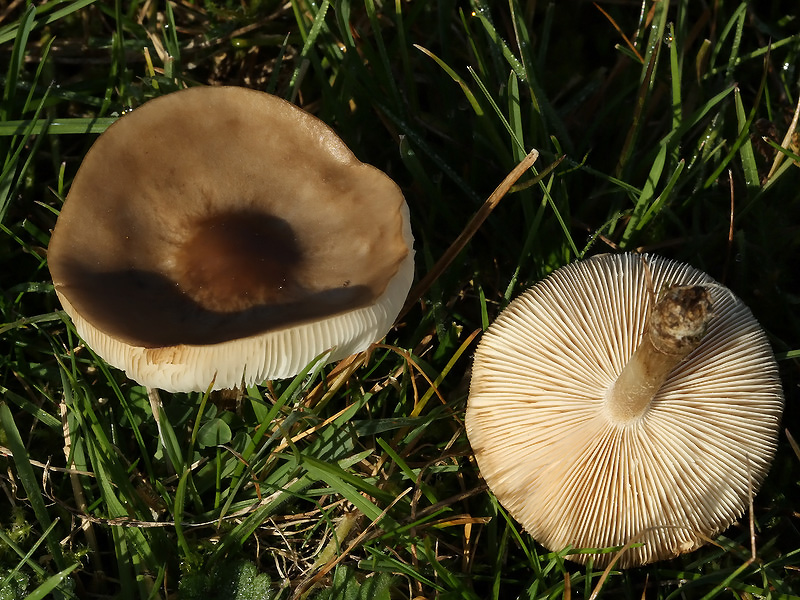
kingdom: Fungi
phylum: Basidiomycota
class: Agaricomycetes
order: Agaricales
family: Tricholomataceae
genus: Melanoleuca
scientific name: Melanoleuca polioleuca
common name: almindelig munkehat
